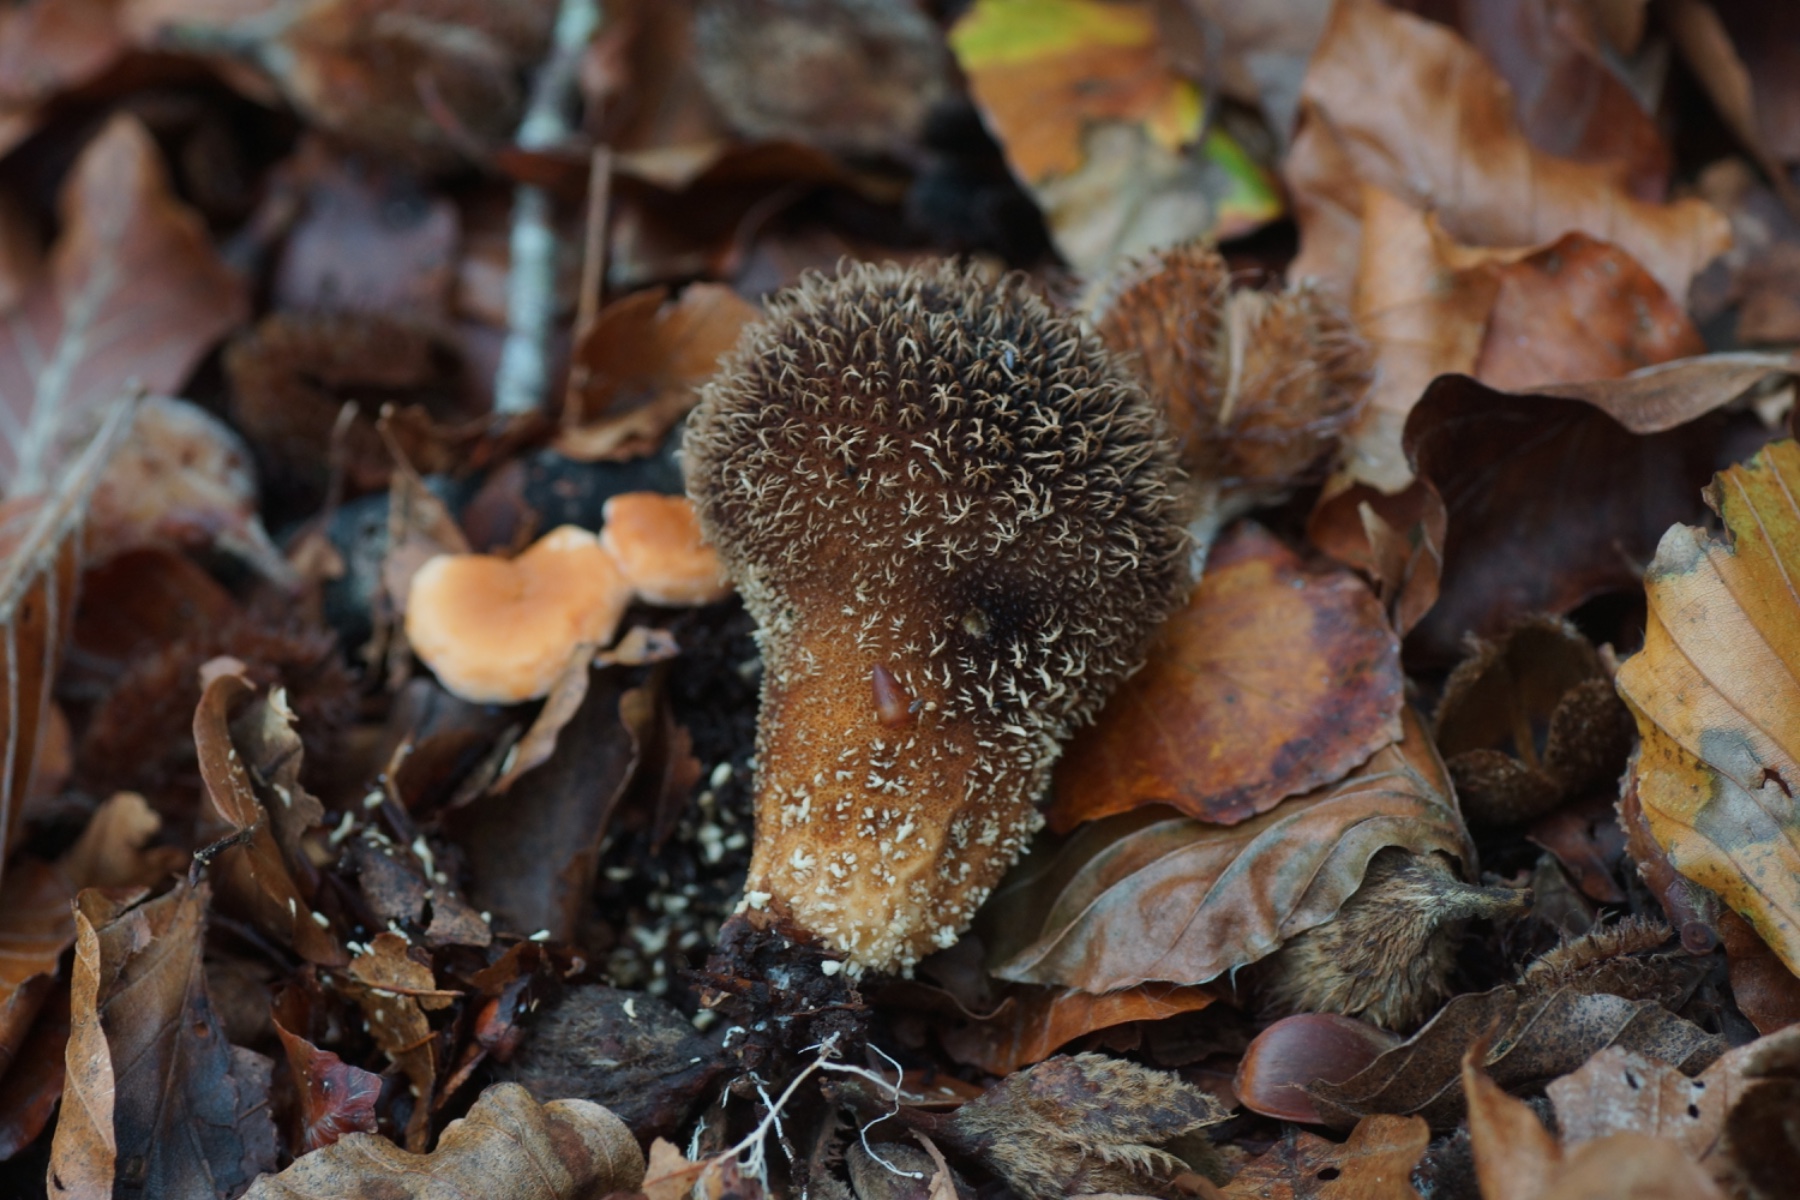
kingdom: Fungi
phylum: Basidiomycota
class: Agaricomycetes
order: Agaricales
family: Lycoperdaceae
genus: Lycoperdon
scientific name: Lycoperdon echinatum
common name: pindsvine-støvbold
